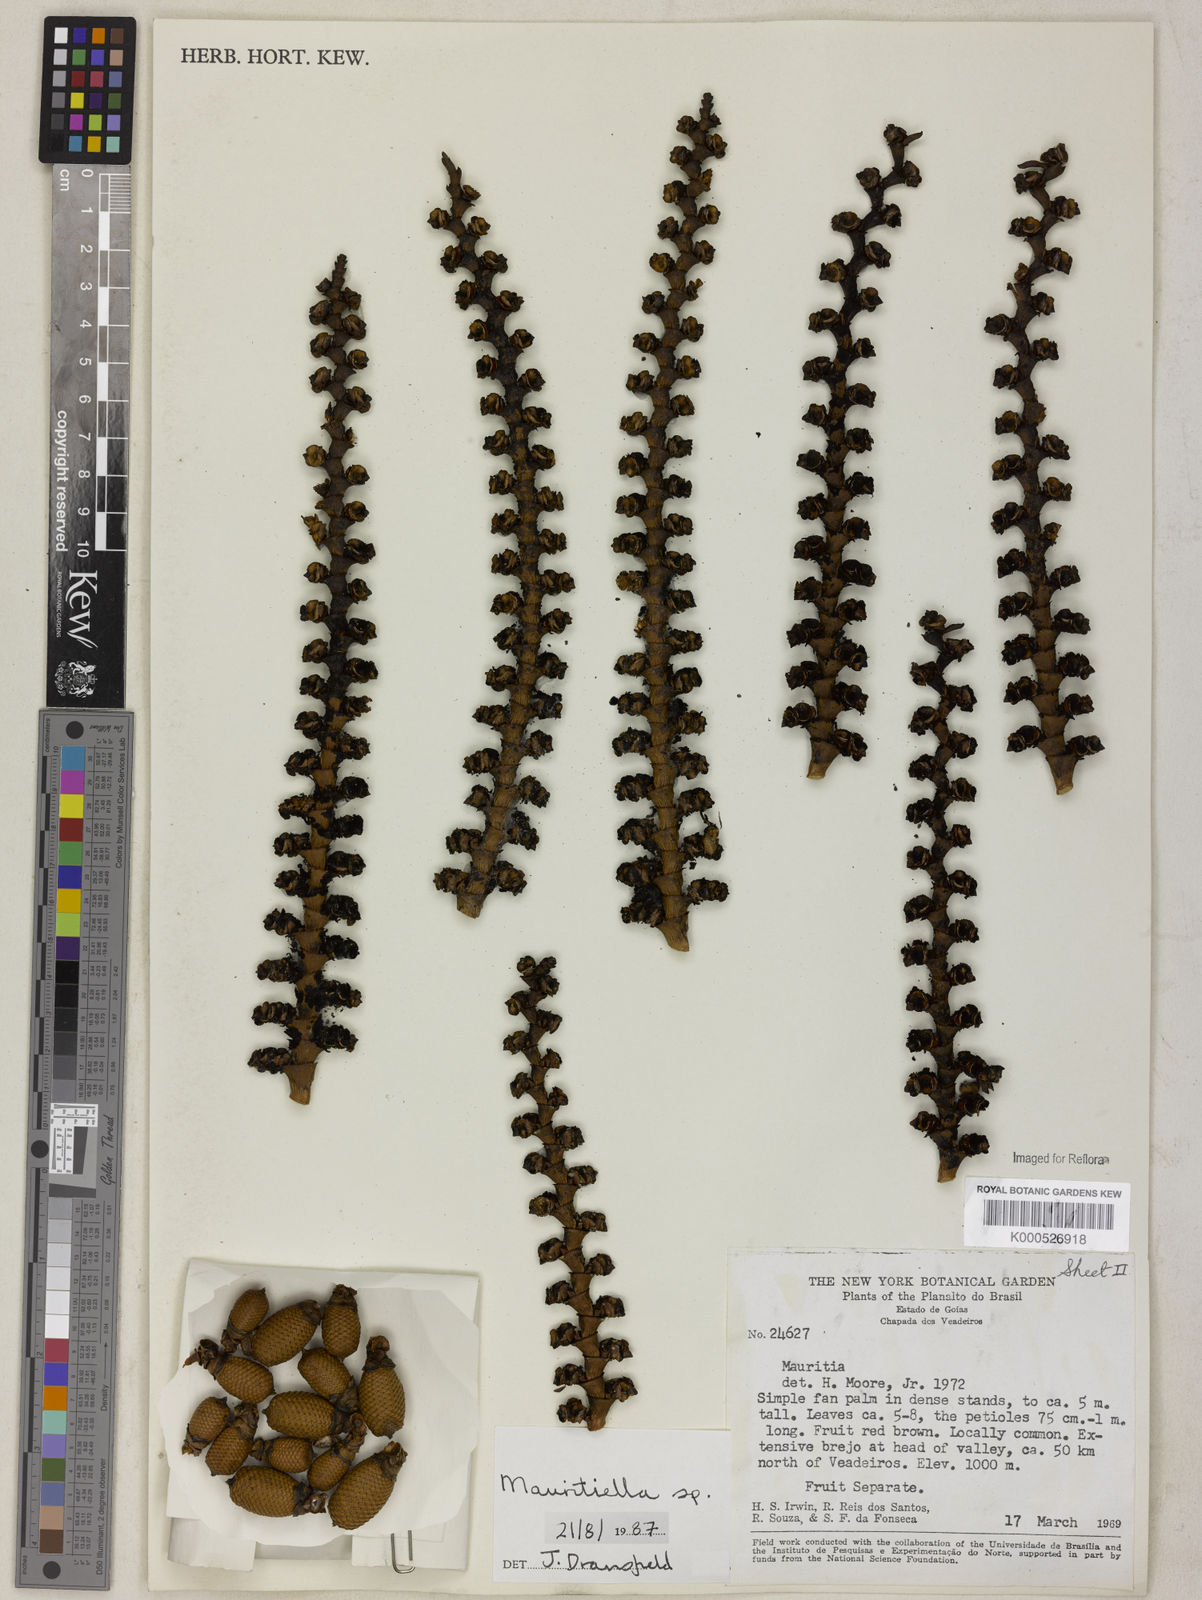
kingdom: Plantae
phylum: Tracheophyta
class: Liliopsida
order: Arecales
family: Arecaceae
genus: Mauritiella
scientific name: Mauritiella armata
